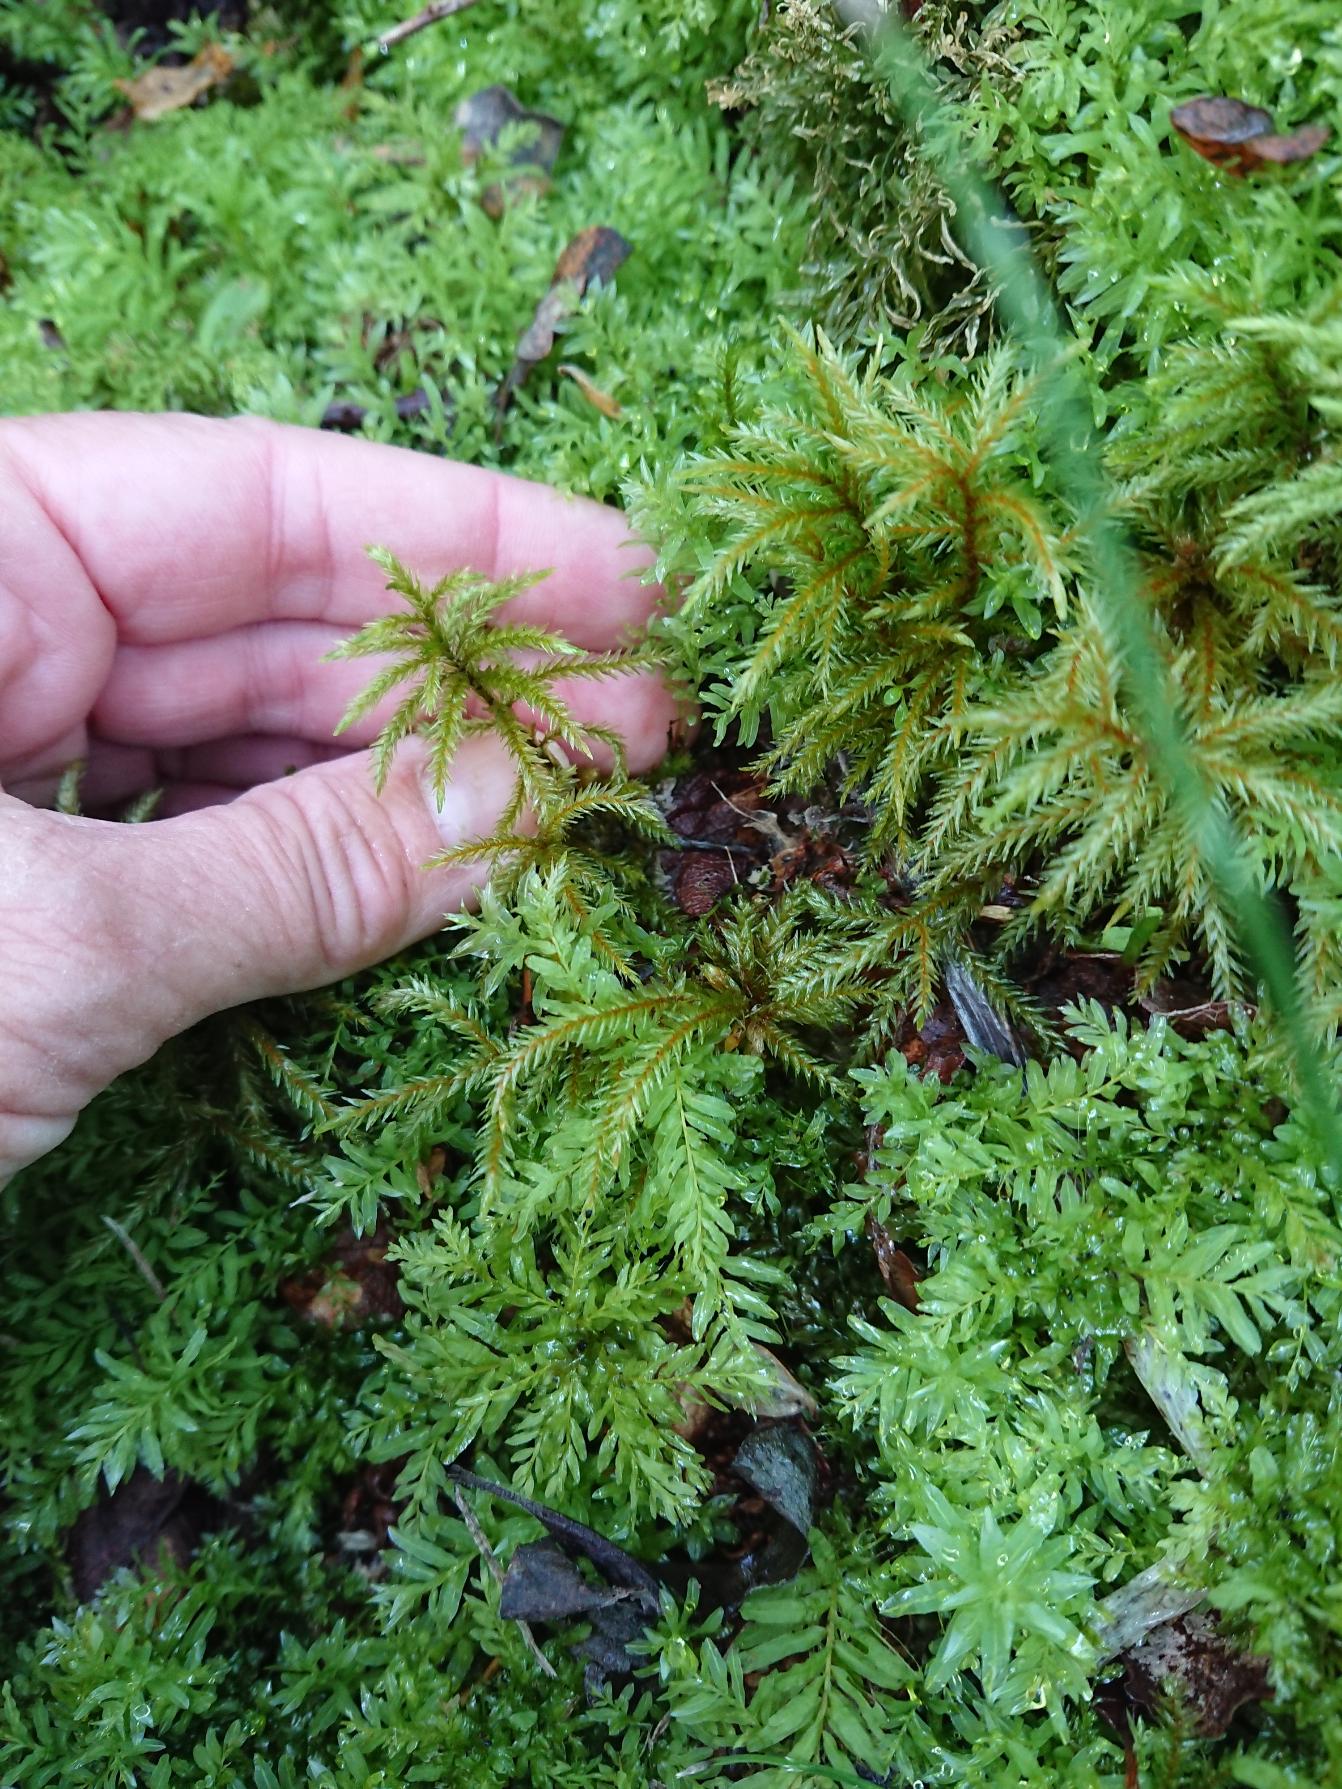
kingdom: Plantae
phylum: Bryophyta
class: Bryopsida
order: Hypnales
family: Climaciaceae
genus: Climacium
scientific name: Climacium dendroides
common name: Stor engkost
